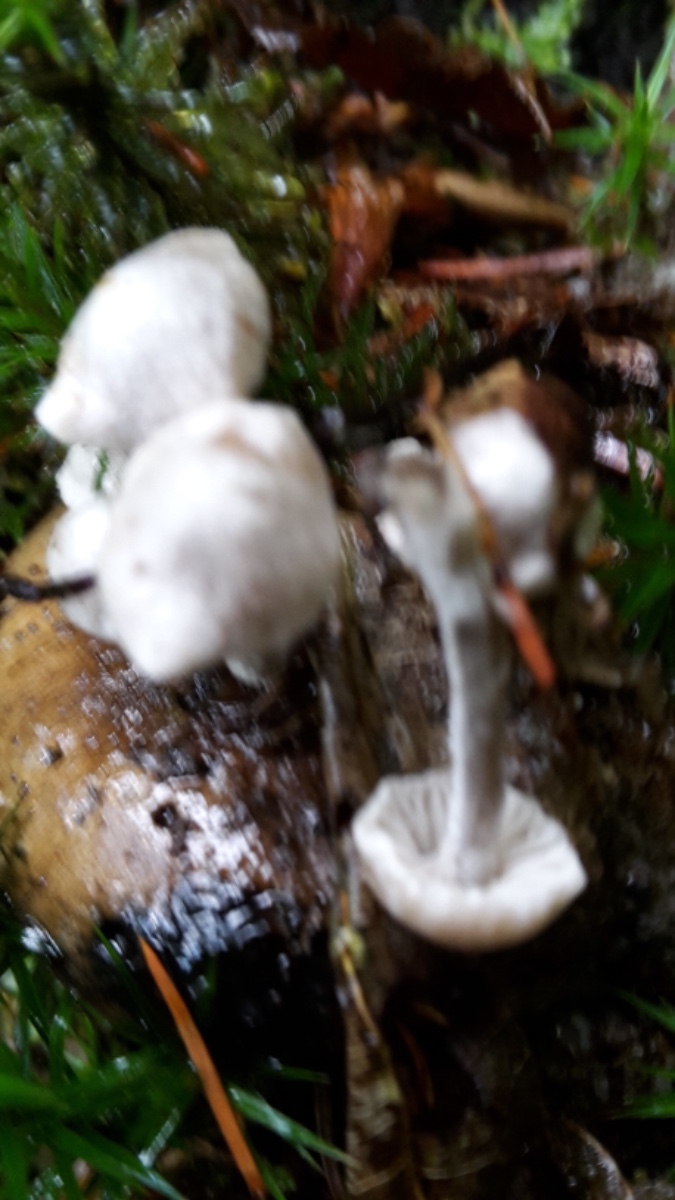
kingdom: Fungi
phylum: Basidiomycota
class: Agaricomycetes
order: Agaricales
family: Lyophyllaceae
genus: Asterophora
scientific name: Asterophora parasitica
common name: grå snyltehat
